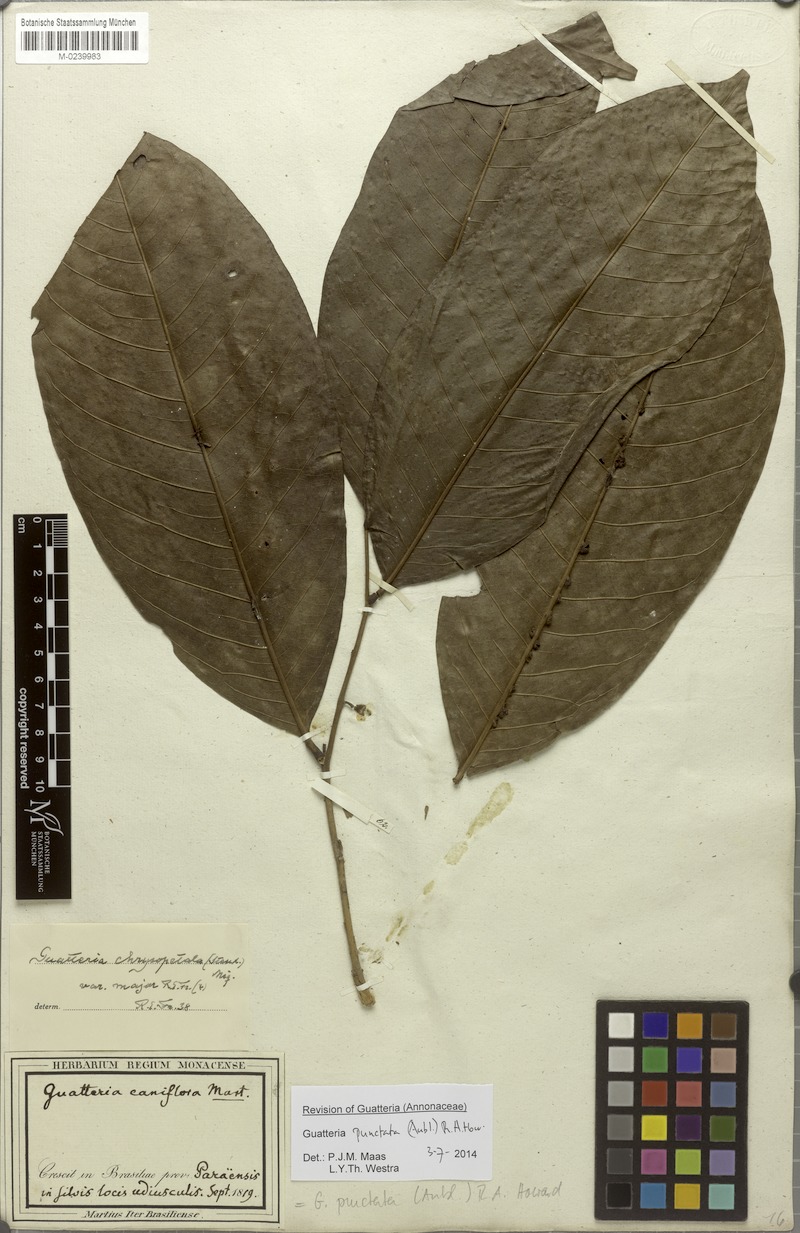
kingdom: Plantae
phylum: Tracheophyta
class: Magnoliopsida
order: Magnoliales
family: Annonaceae
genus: Guatteria
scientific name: Guatteria punctata
